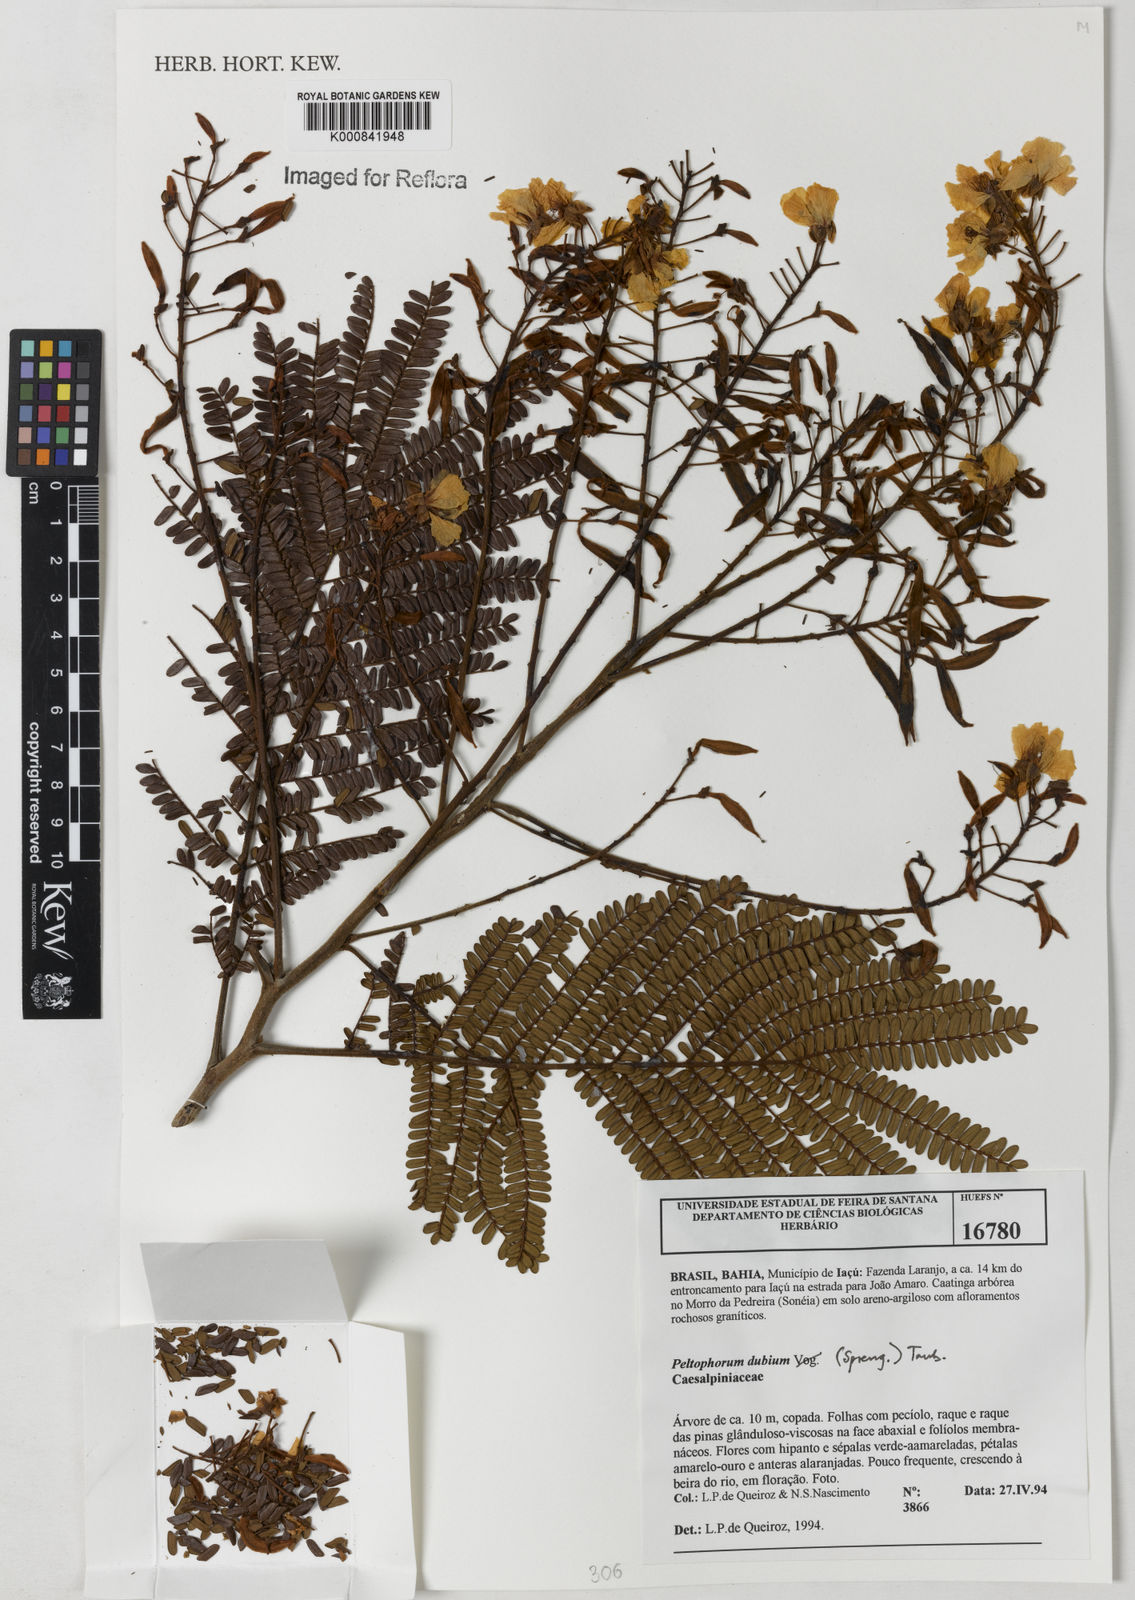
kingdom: Plantae
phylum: Tracheophyta
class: Magnoliopsida
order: Fabales
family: Fabaceae
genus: Peltophorum
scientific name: Peltophorum dubium
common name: Horsebush
